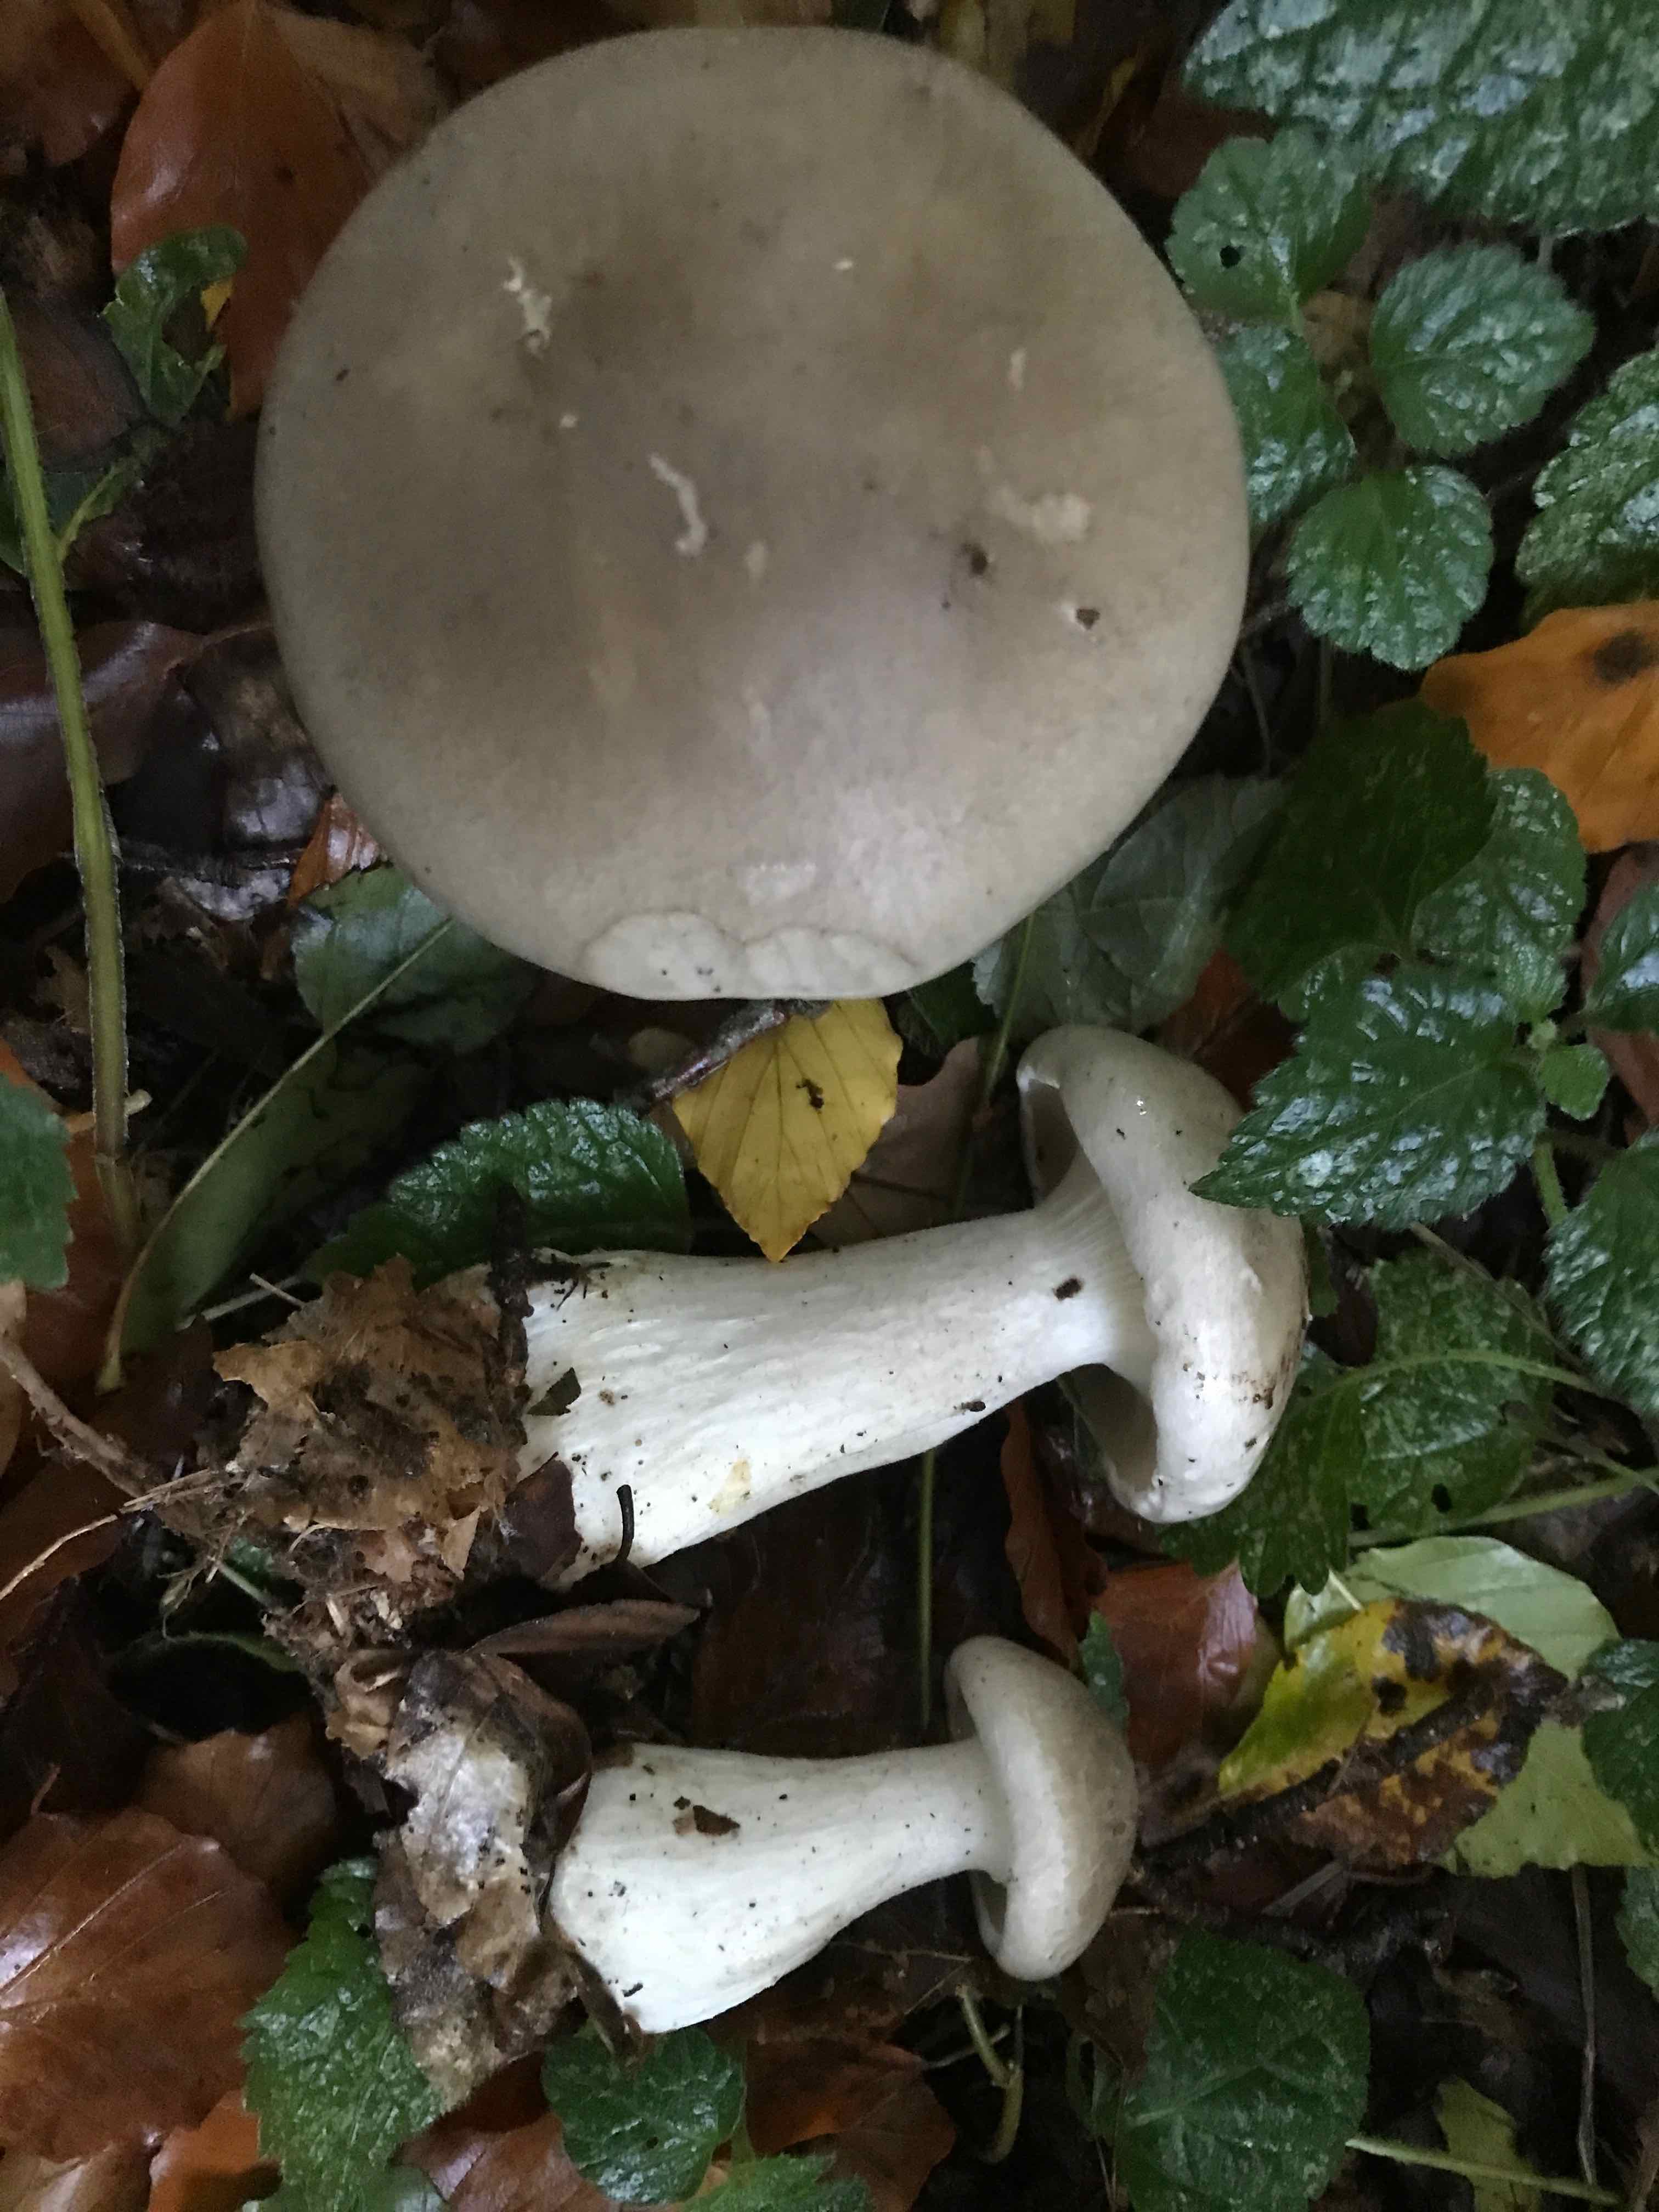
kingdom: Fungi
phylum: Basidiomycota
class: Agaricomycetes
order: Agaricales
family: Tricholomataceae
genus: Clitocybe
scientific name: Clitocybe nebularis
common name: tåge-tragthat
